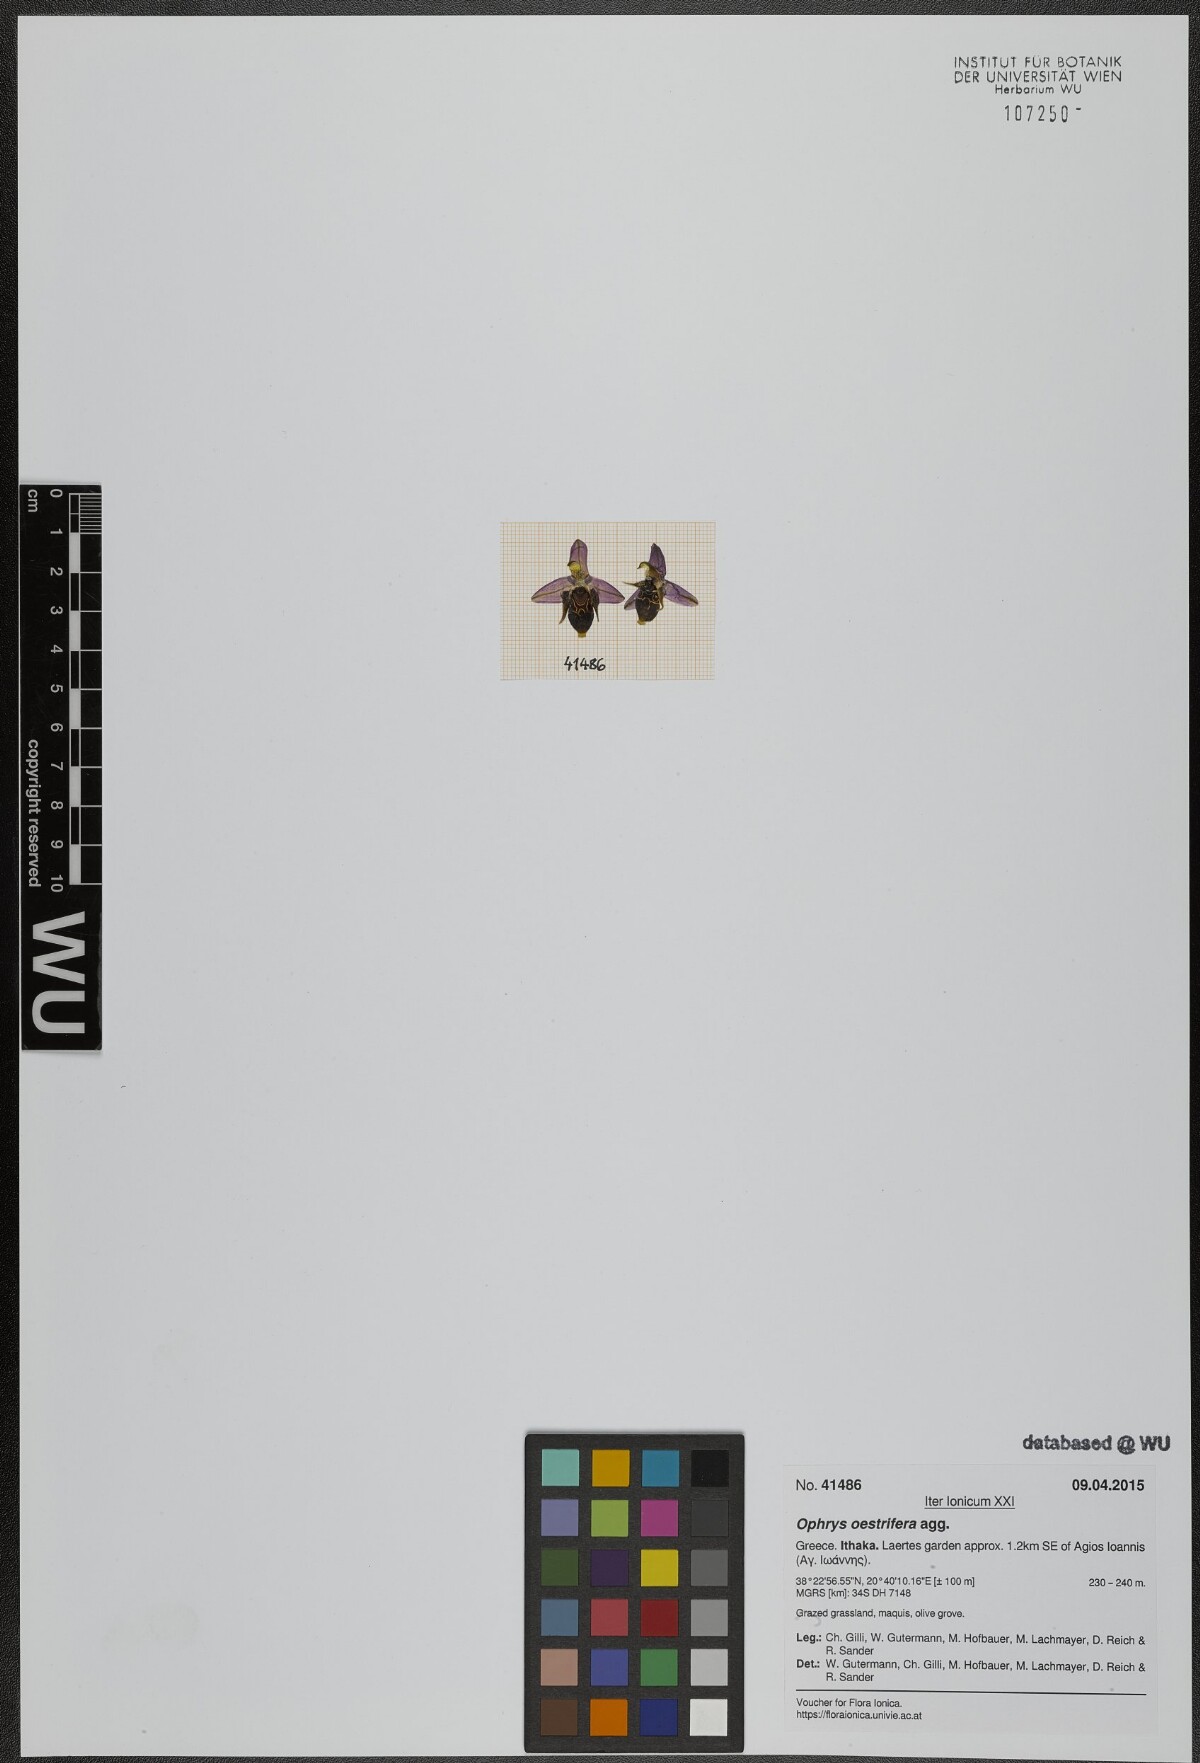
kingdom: Plantae
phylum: Tracheophyta
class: Liliopsida
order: Asparagales
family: Orchidaceae
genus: Ophrys
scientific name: Ophrys scolopax
